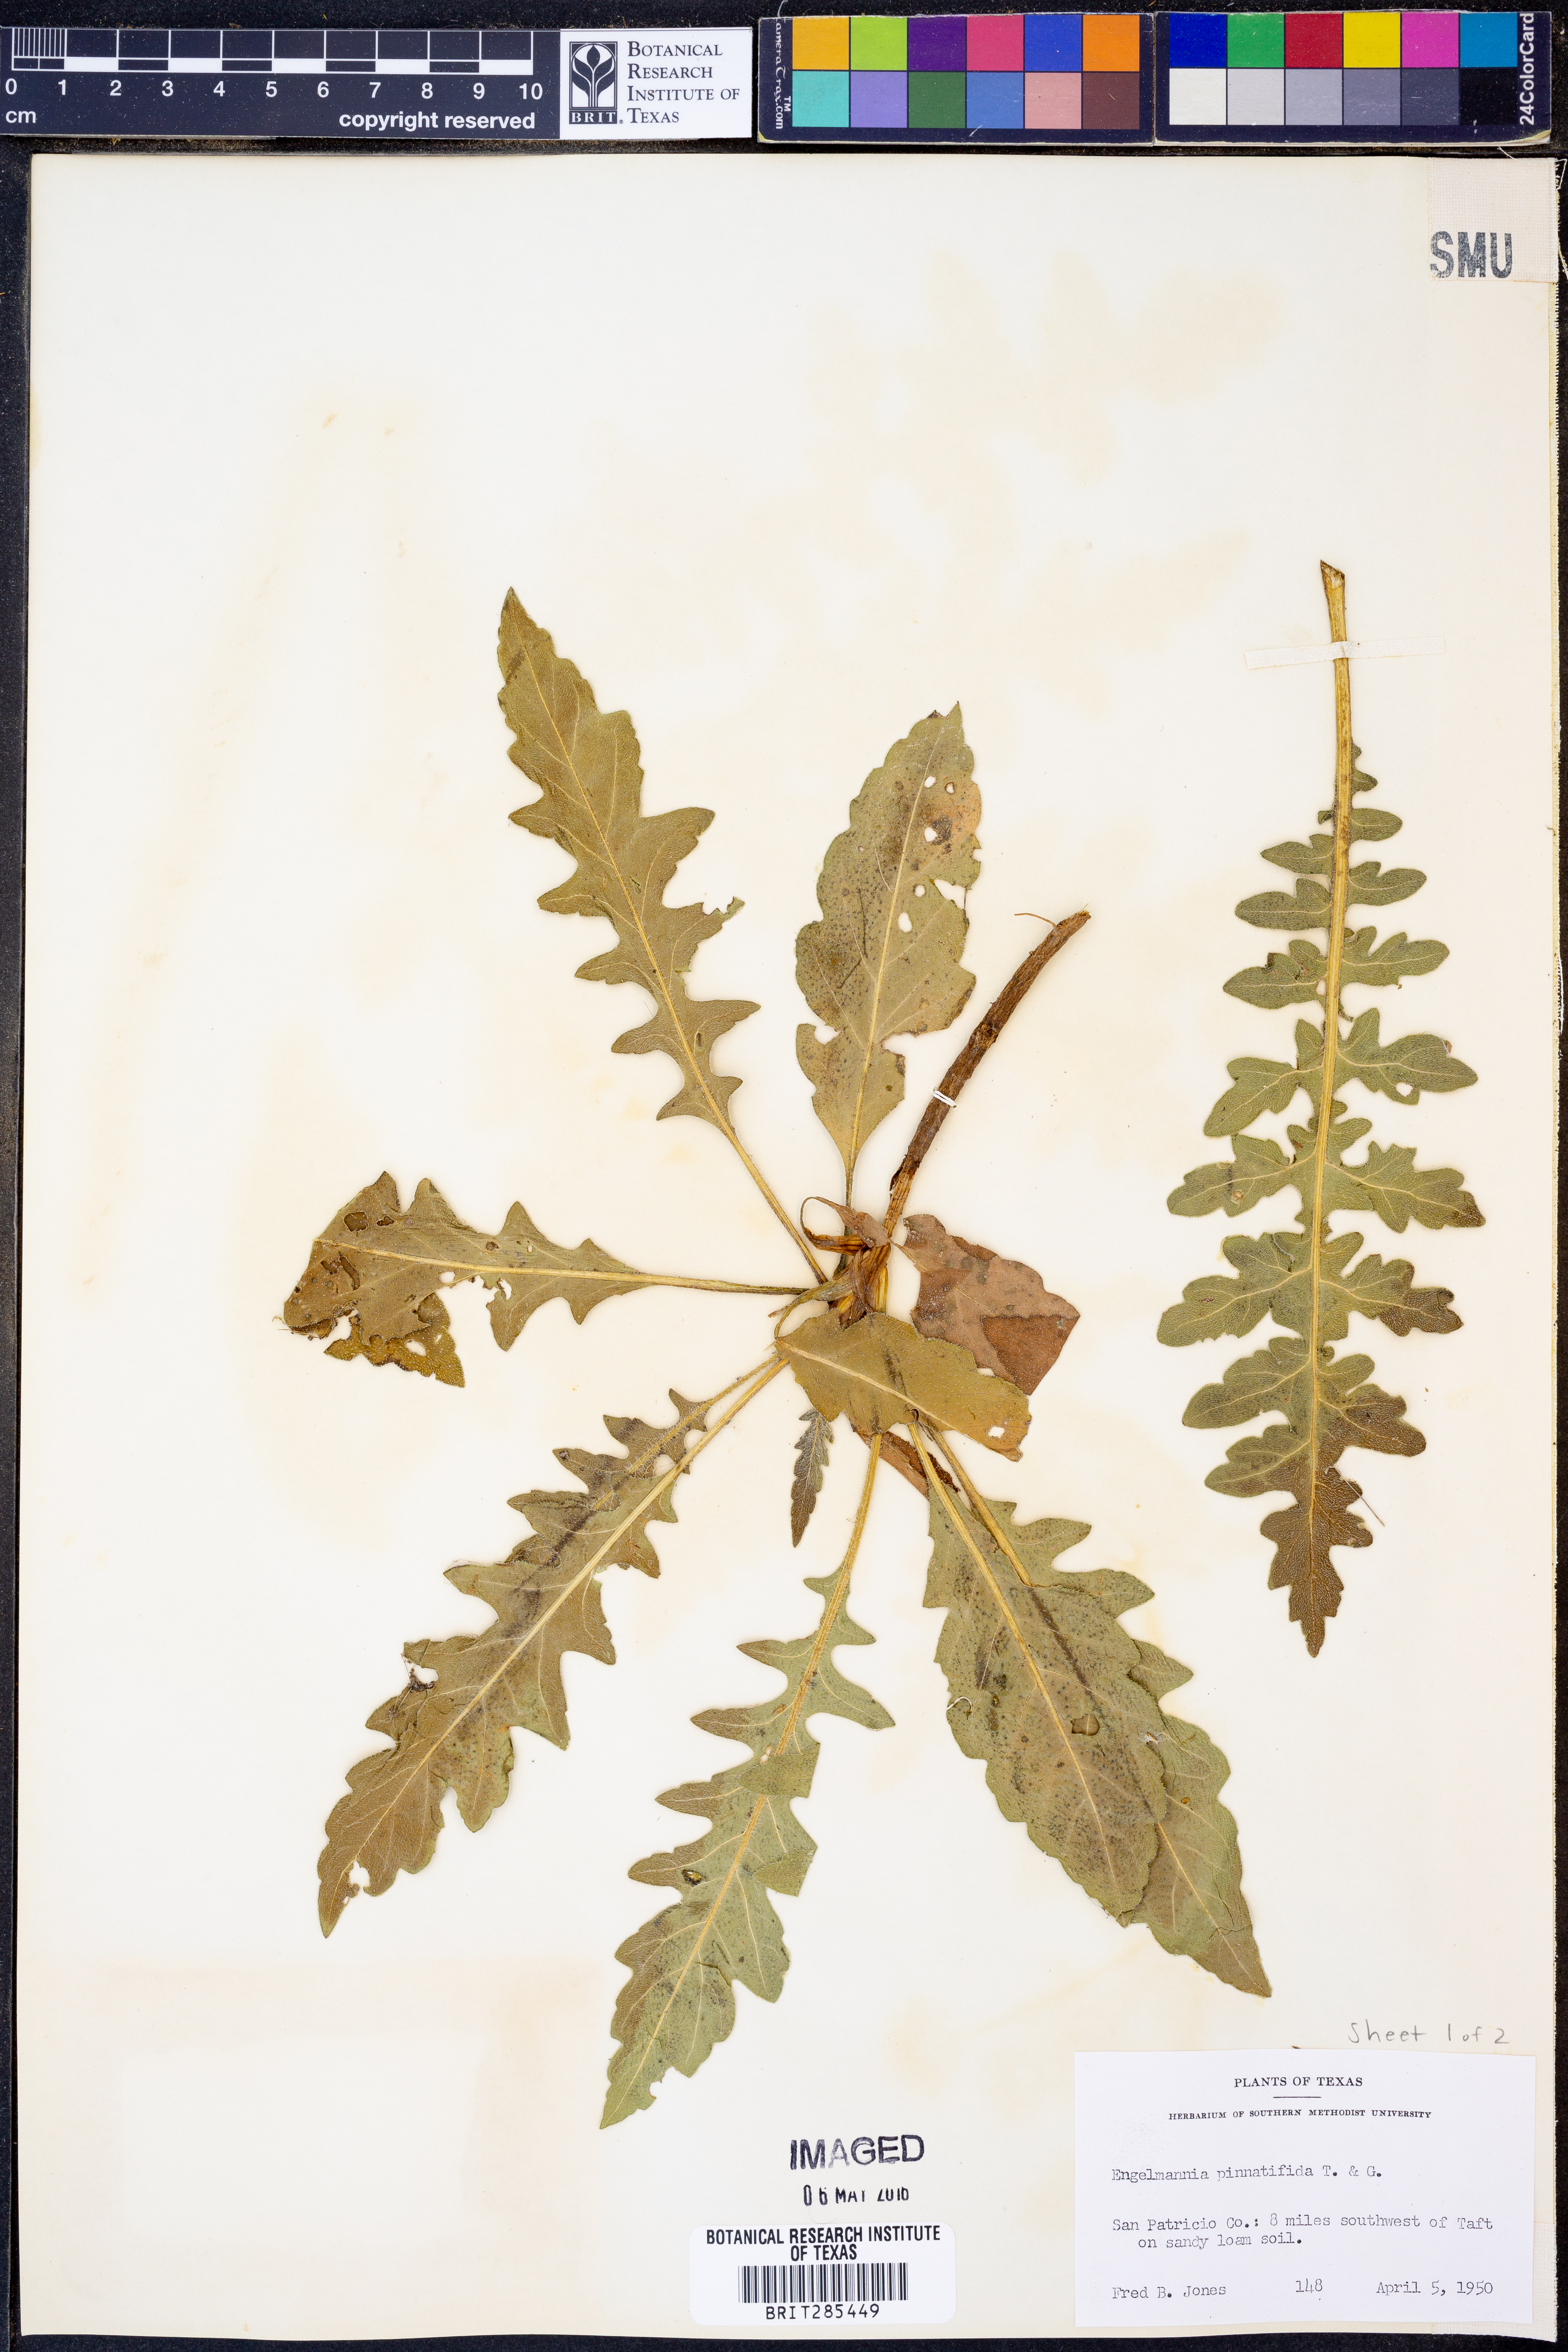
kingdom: Plantae
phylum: Tracheophyta
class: Magnoliopsida
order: Asterales
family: Asteraceae
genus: Engelmannia
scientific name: Engelmannia peristenia
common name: Engelmann's daisy
